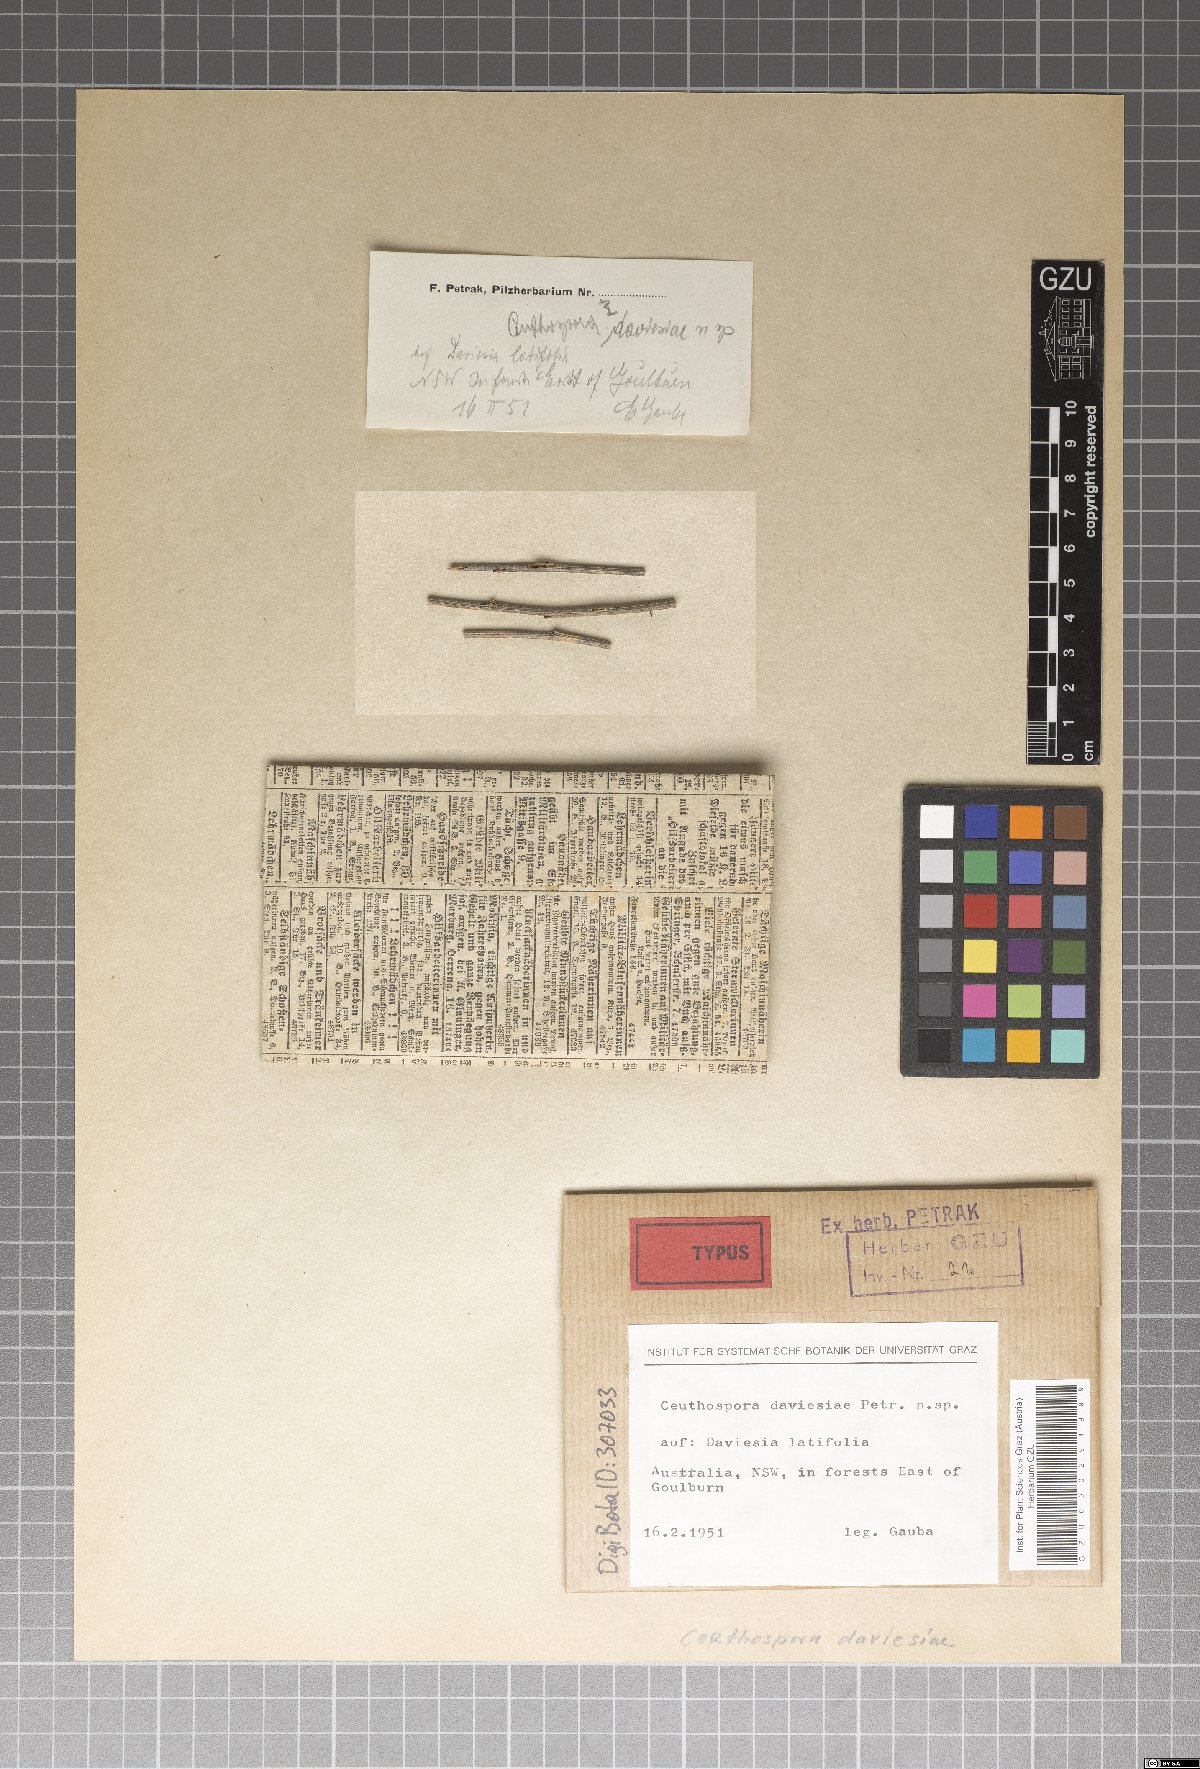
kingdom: Fungi
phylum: Ascomycota
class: Leotiomycetes
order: Phacidiales
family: Phacidiaceae
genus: Ceuthospora
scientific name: Ceuthospora daviesiae
